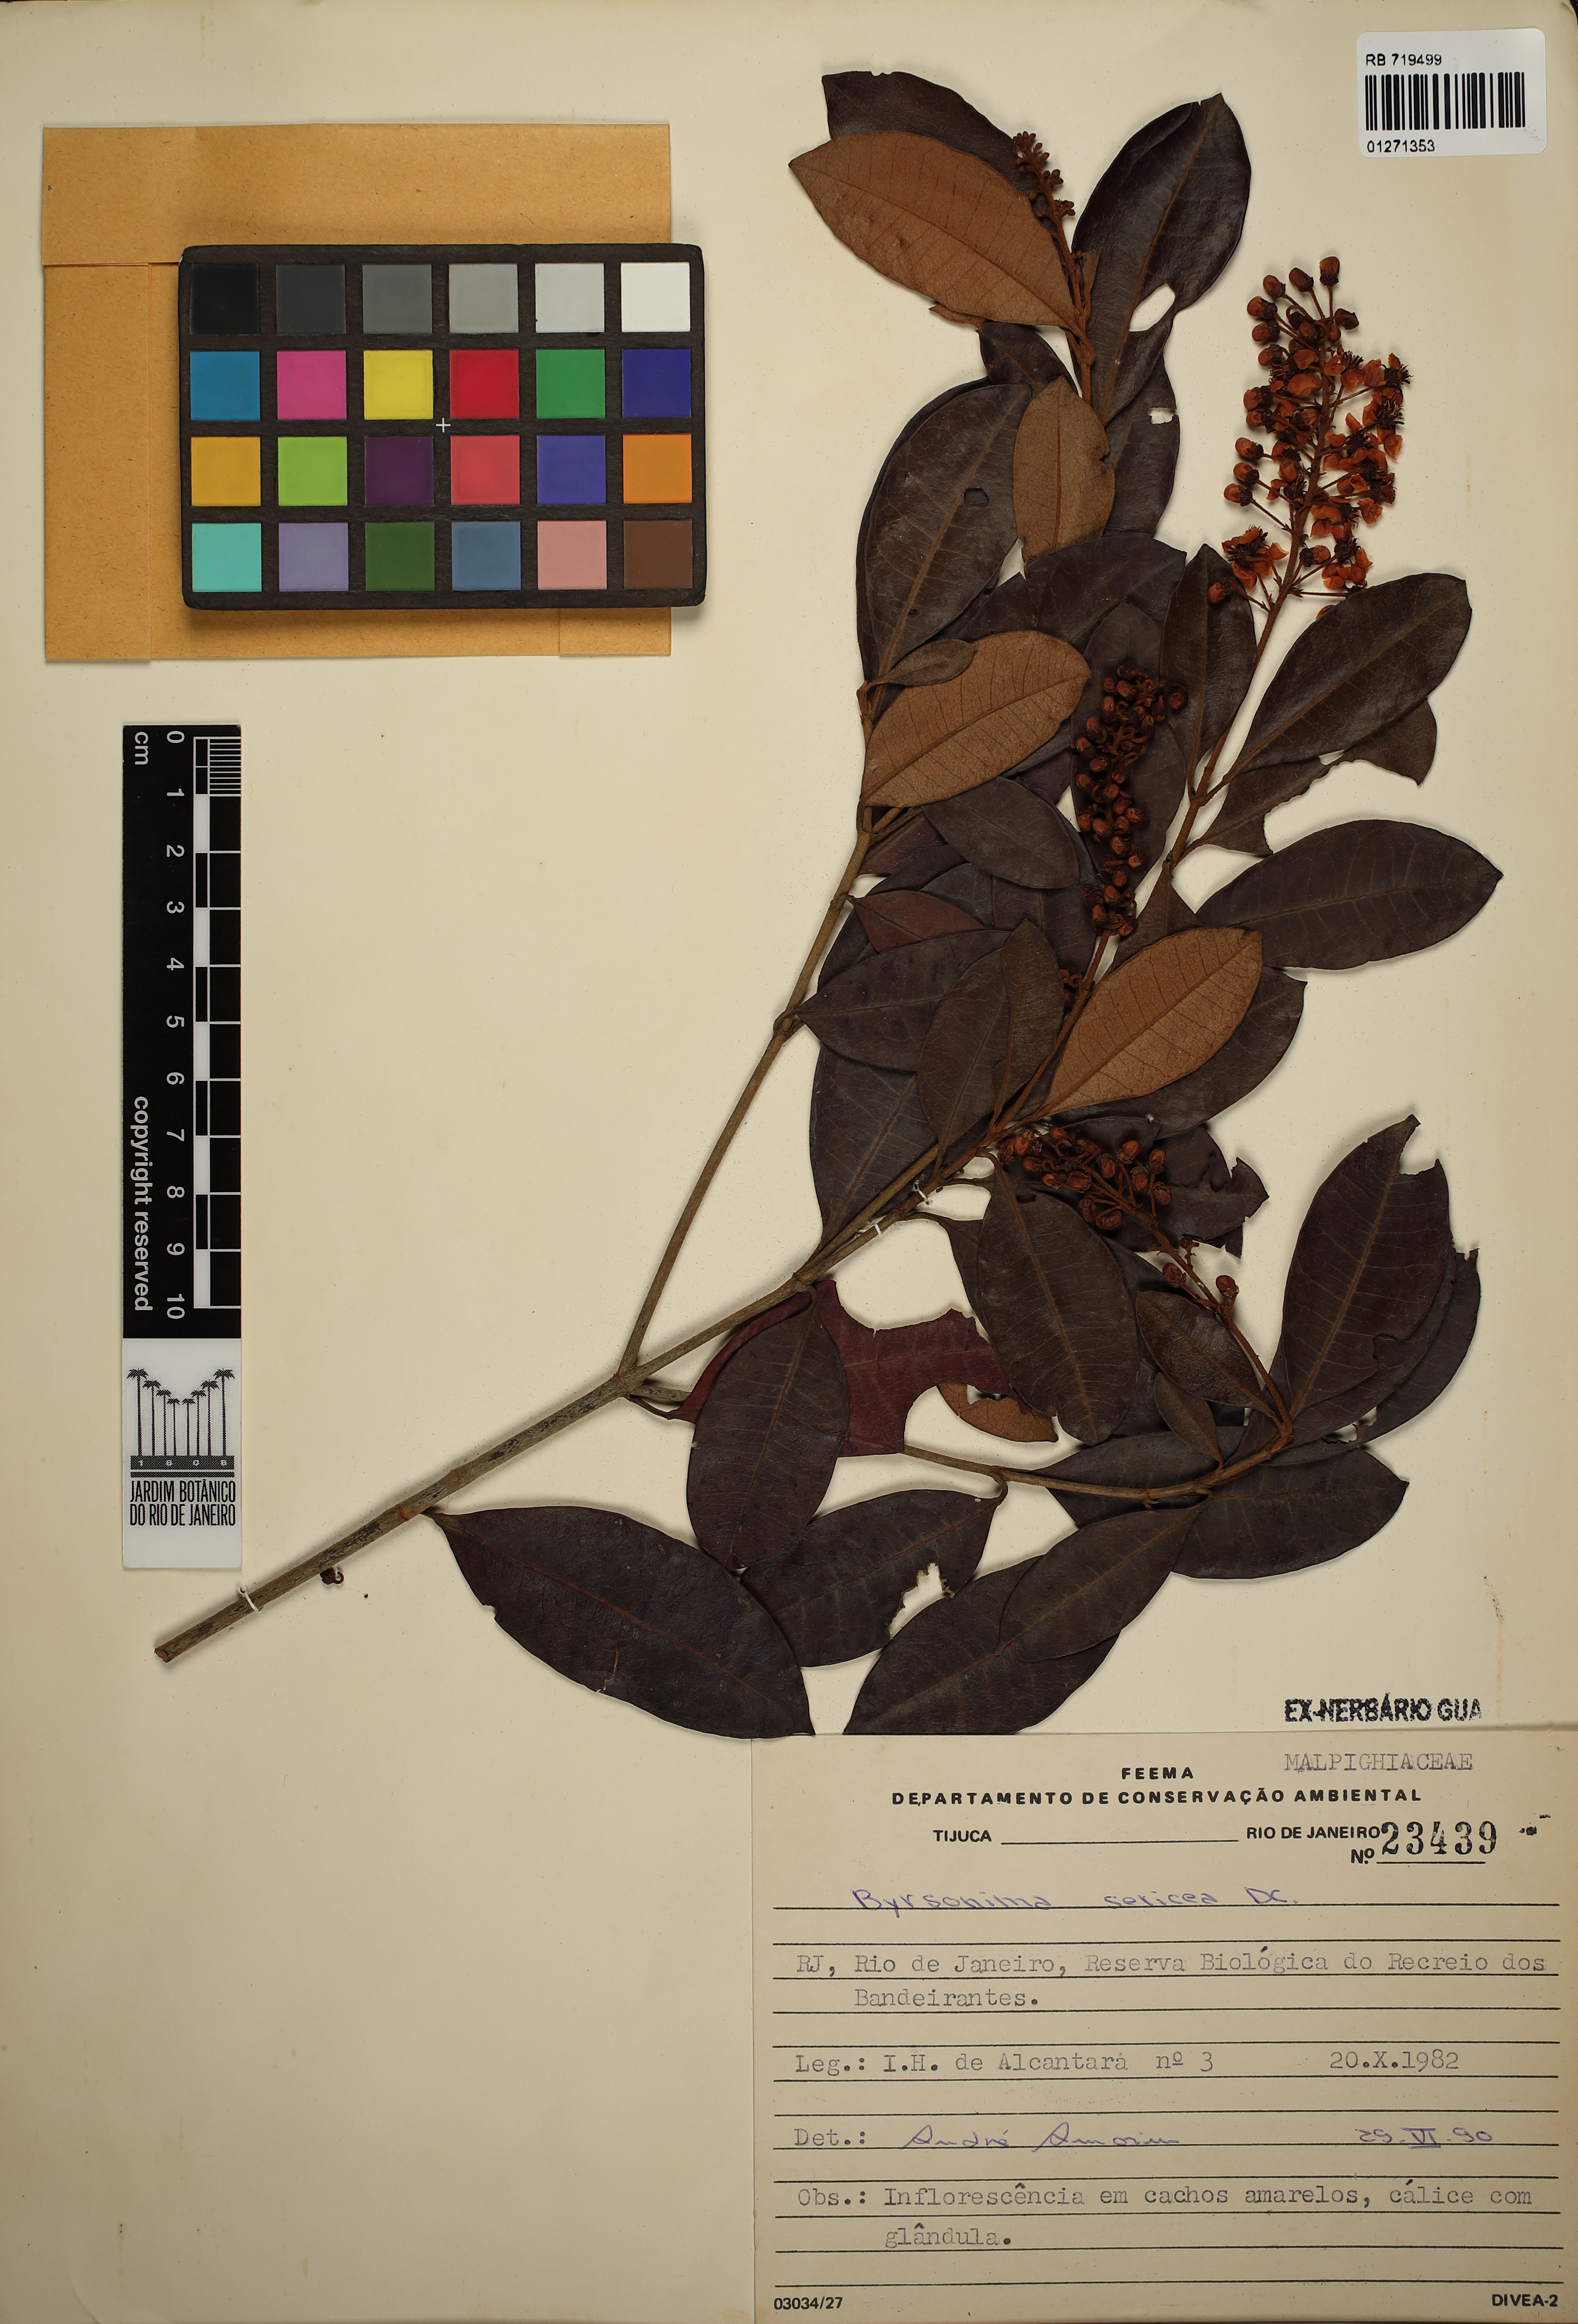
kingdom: Plantae
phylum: Tracheophyta
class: Magnoliopsida
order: Malpighiales
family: Malpighiaceae
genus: Byrsonima
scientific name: Byrsonima sericea
